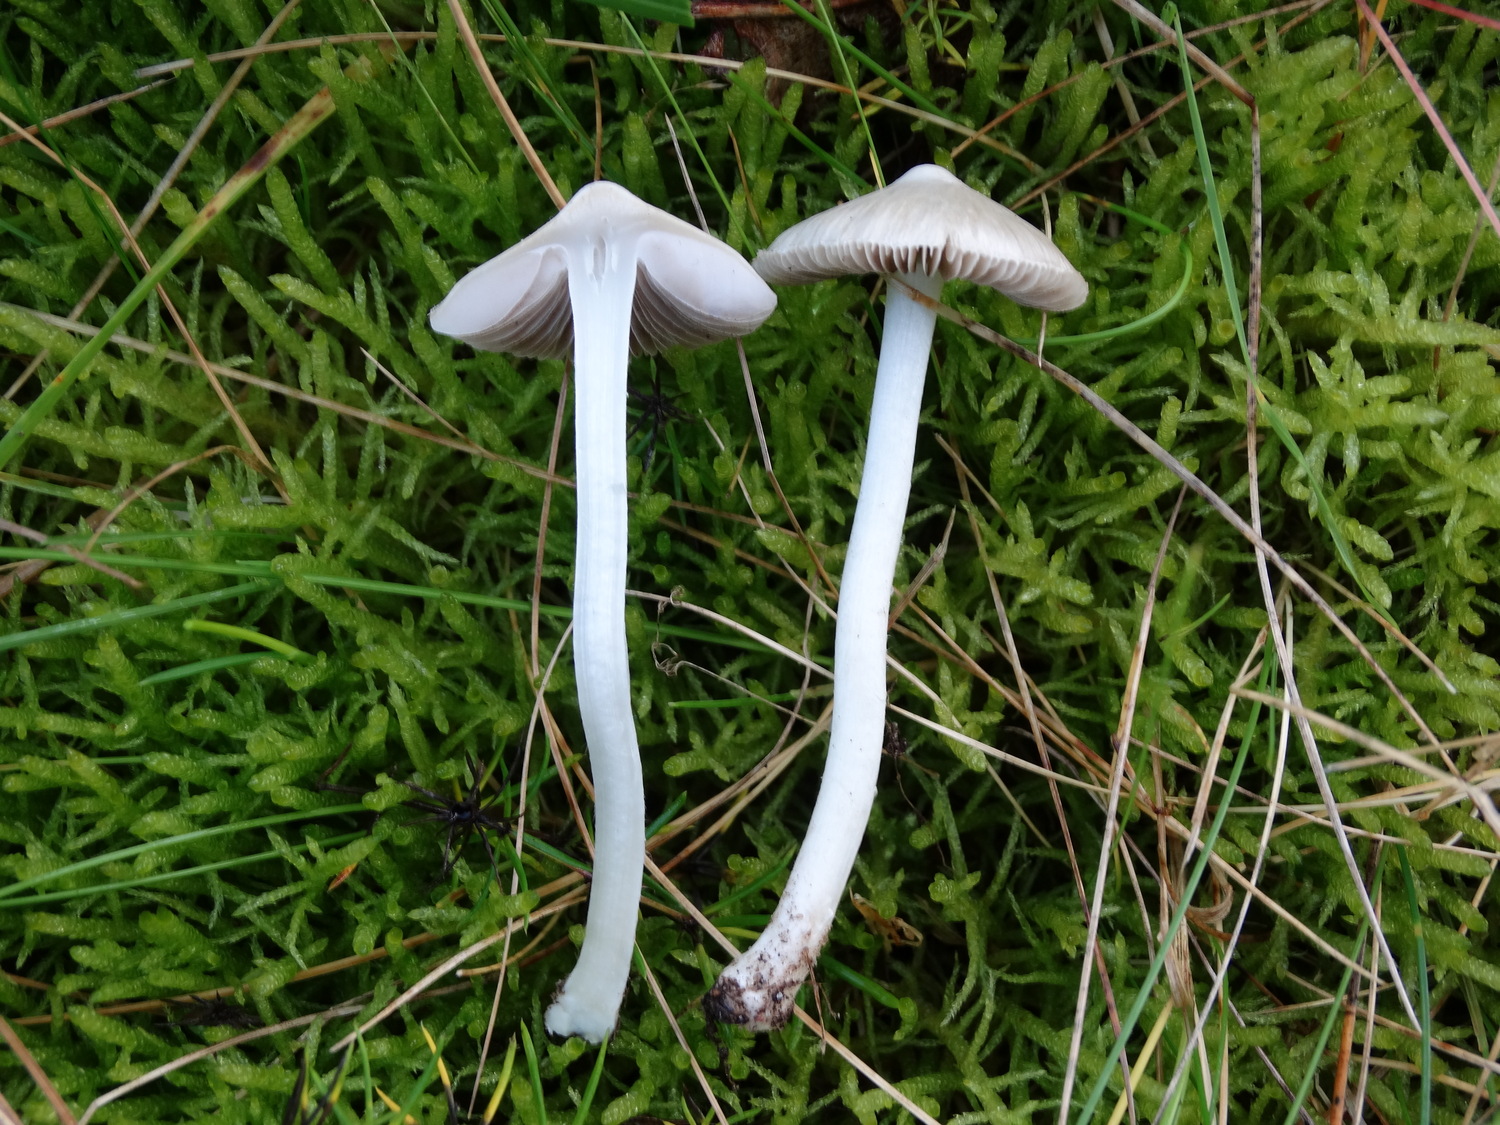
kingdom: Fungi
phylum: Basidiomycota
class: Agaricomycetes
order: Agaricales
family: Inocybaceae
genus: Inocybe
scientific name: Inocybe
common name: almindelig trævlhat
